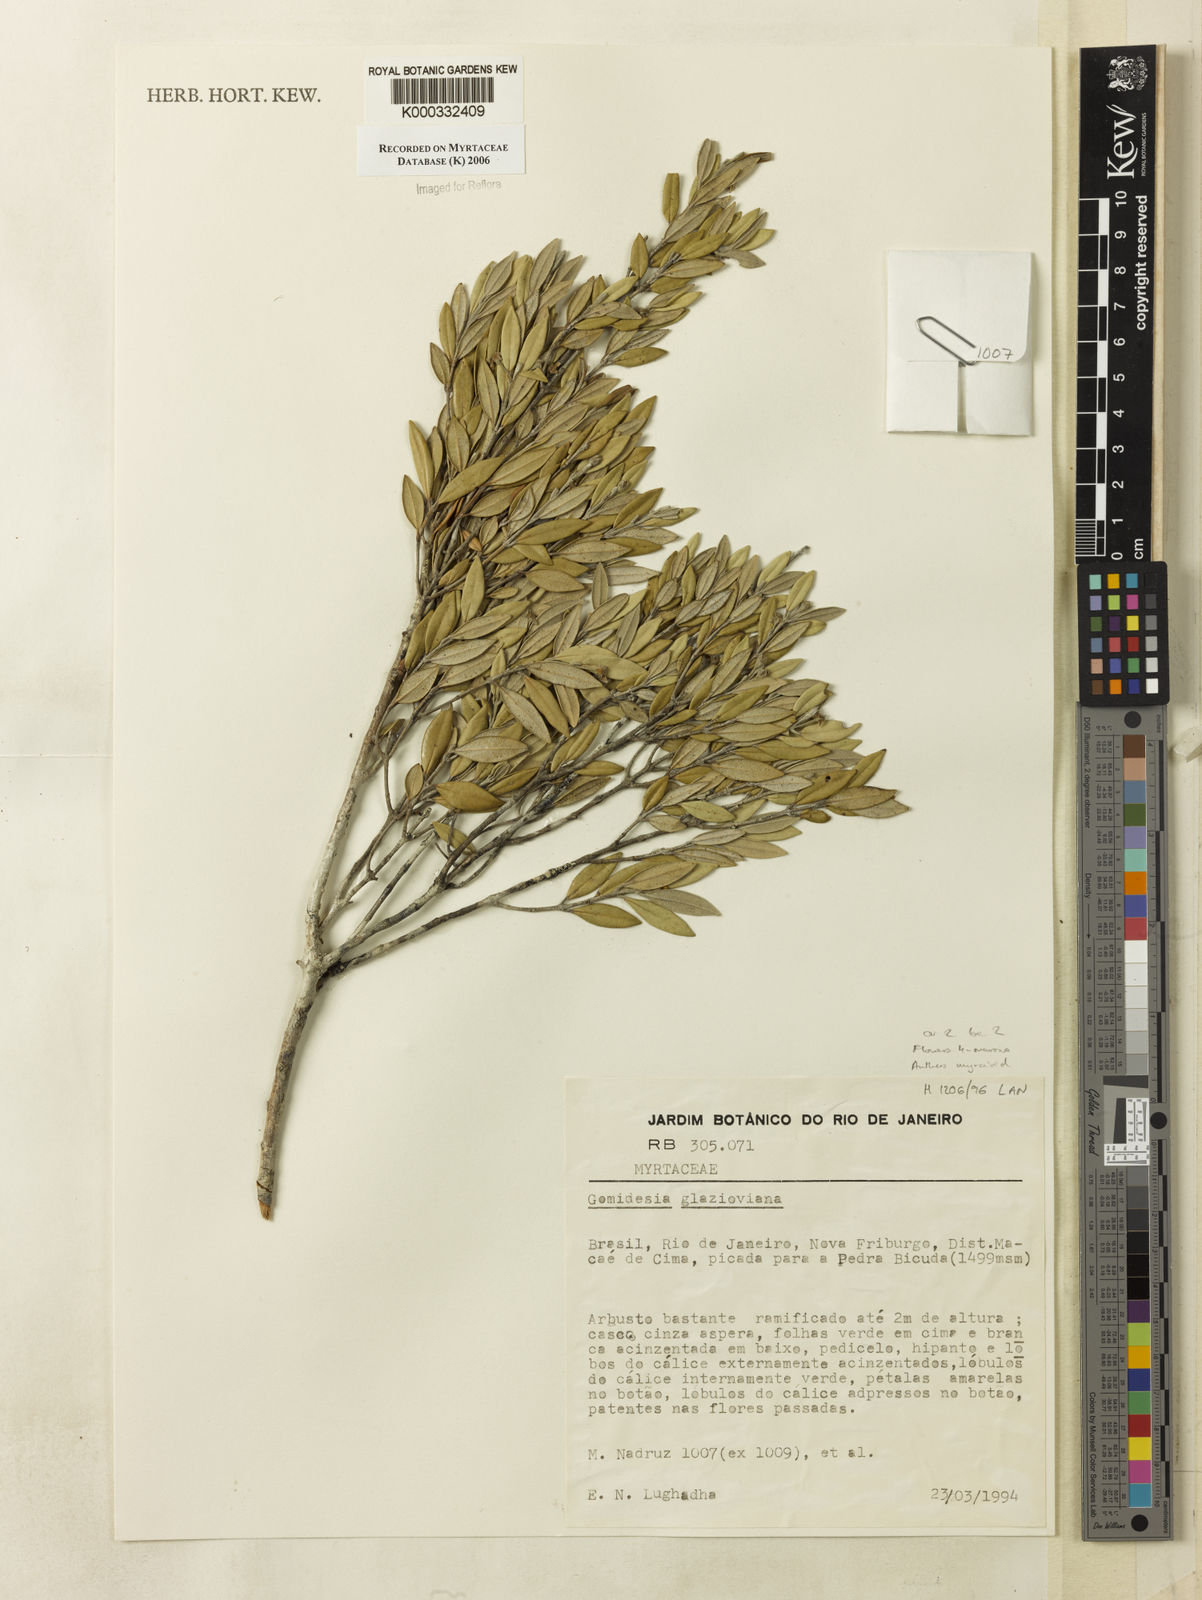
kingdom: Plantae
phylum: Tracheophyta
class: Magnoliopsida
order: Myrtales
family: Myrtaceae
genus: Myrcia
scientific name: Myrcia glazioviana
